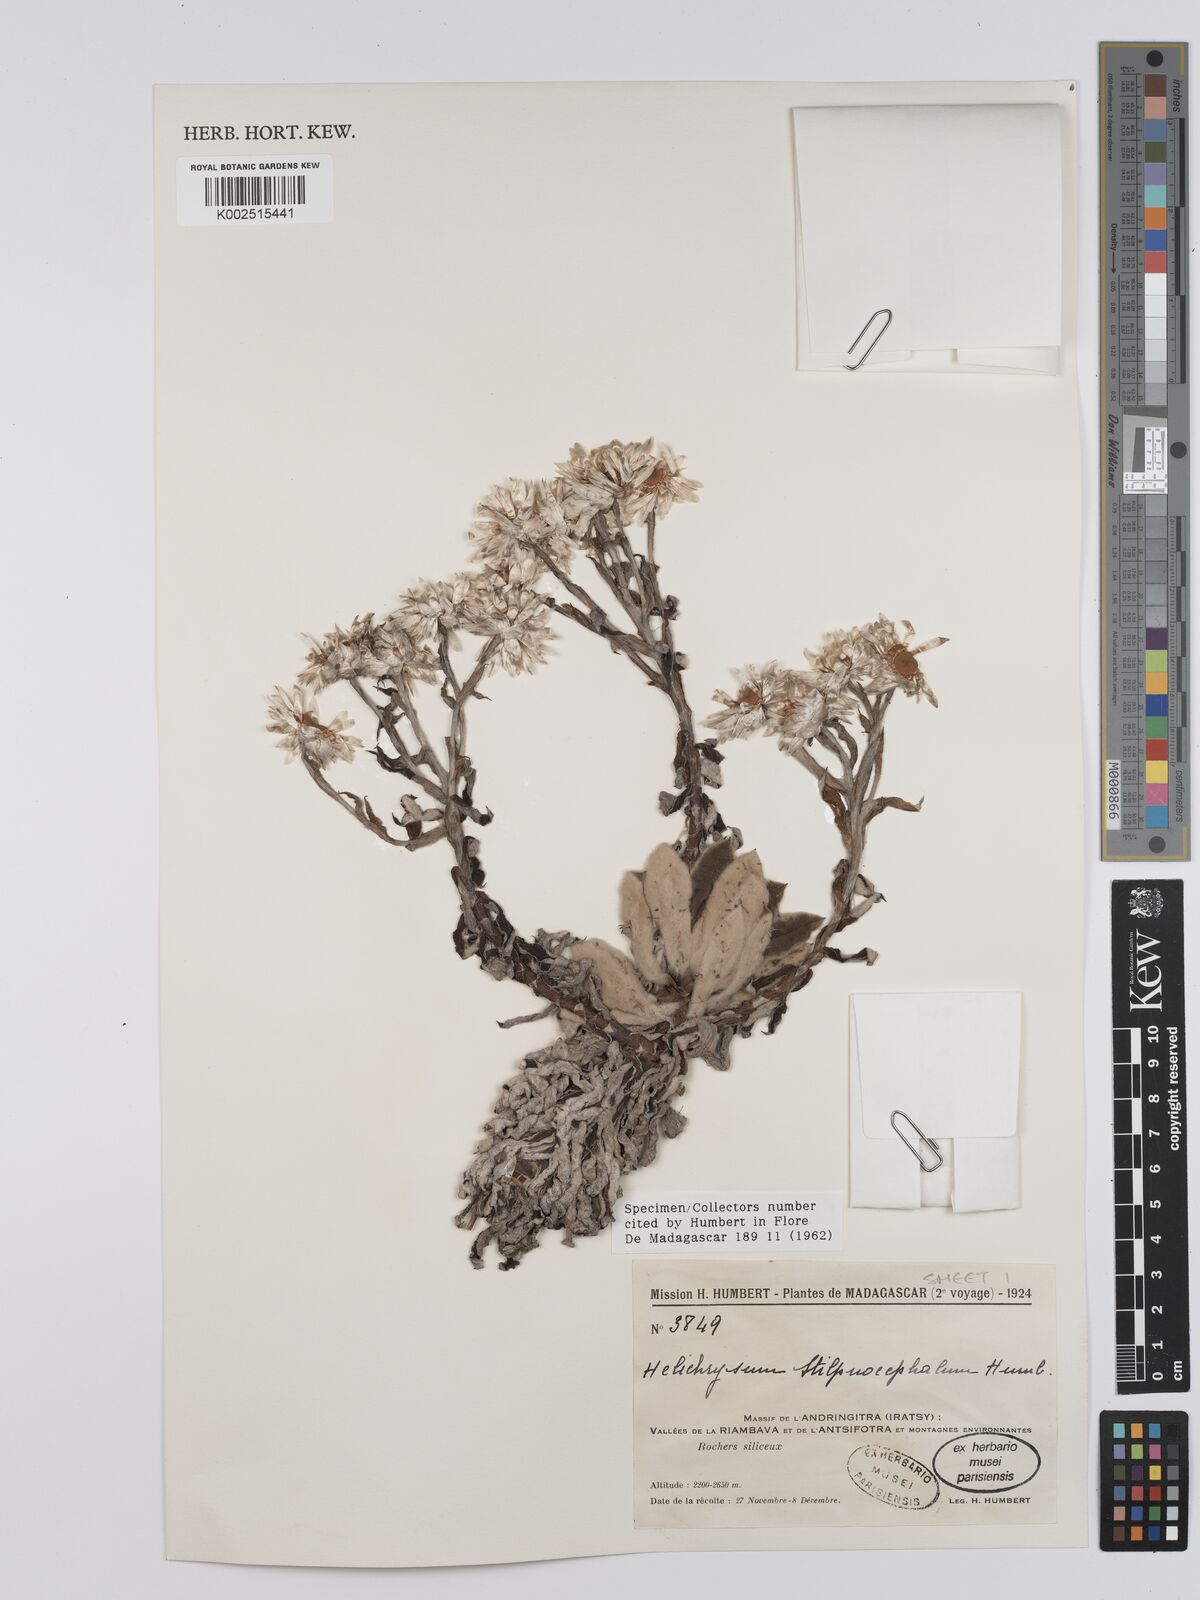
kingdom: Plantae
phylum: Tracheophyta
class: Magnoliopsida
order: Asterales
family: Asteraceae
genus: Helichrysum
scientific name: Helichrysum stilpnocephalum
